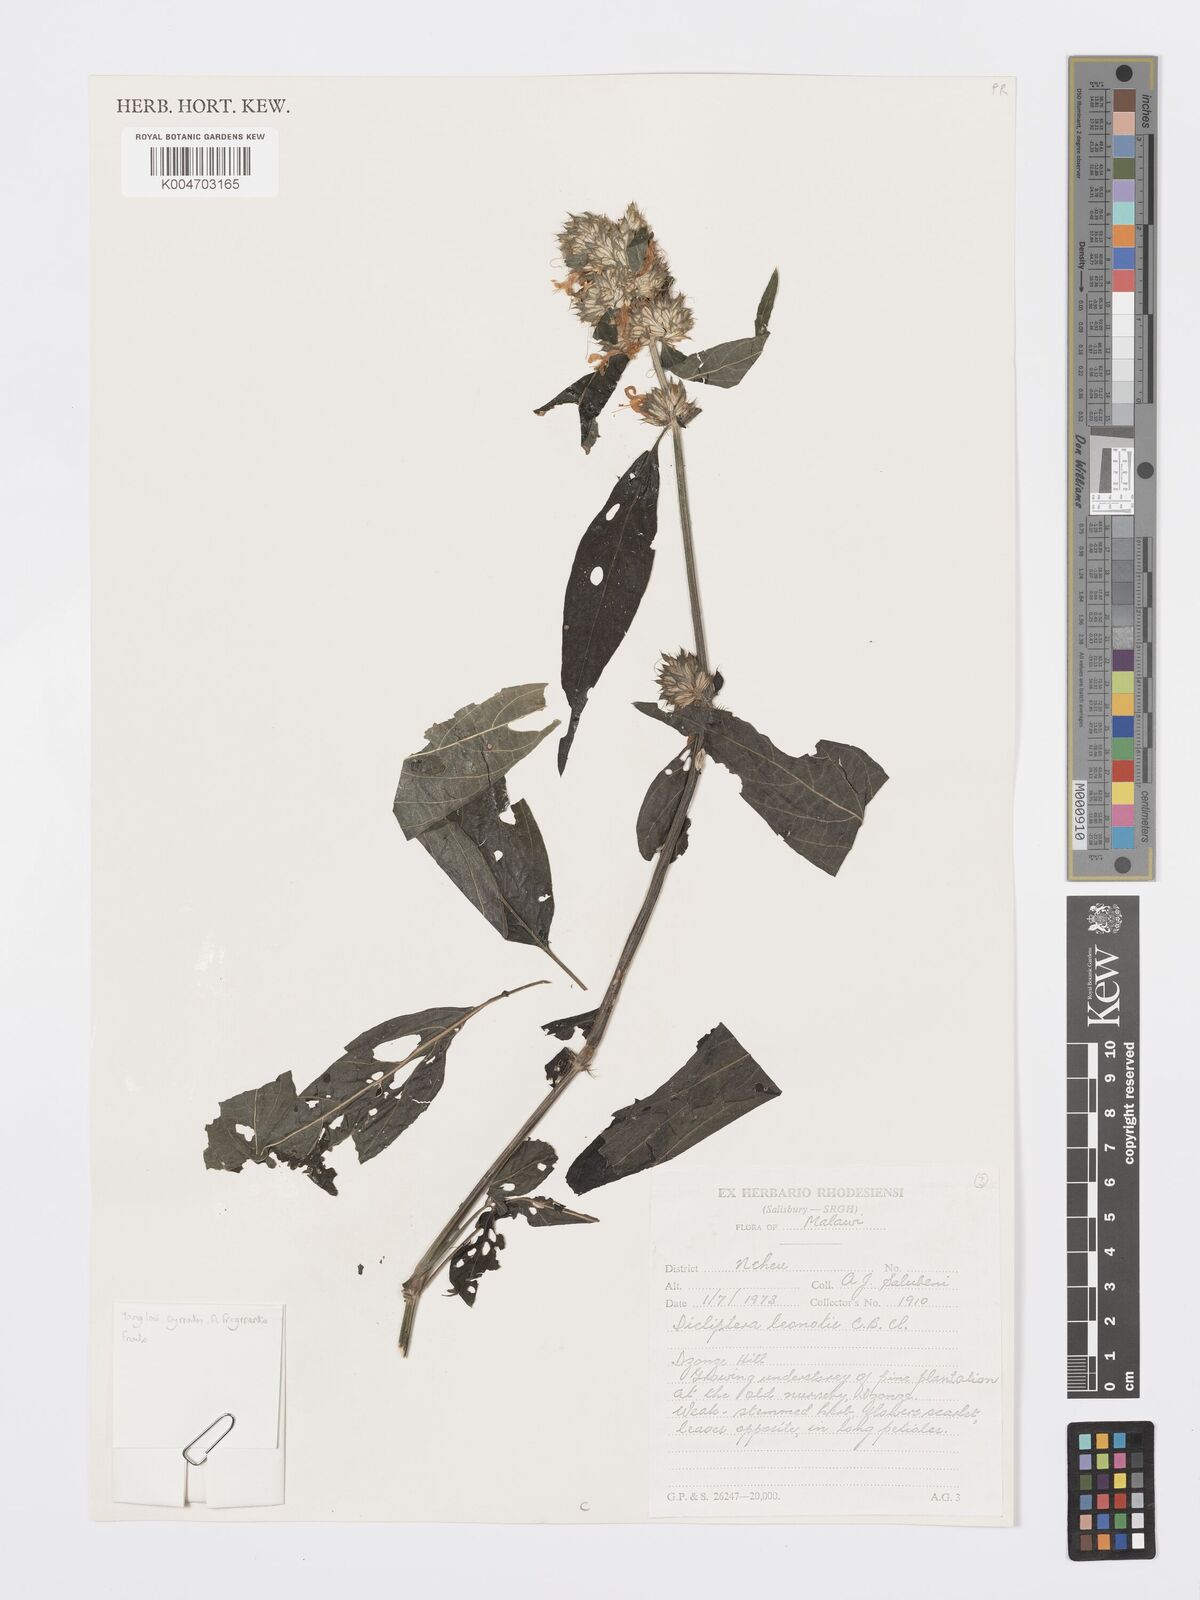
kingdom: Plantae
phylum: Tracheophyta
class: Magnoliopsida
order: Lamiales
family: Acanthaceae
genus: Dicliptera
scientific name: Dicliptera clinopodia
